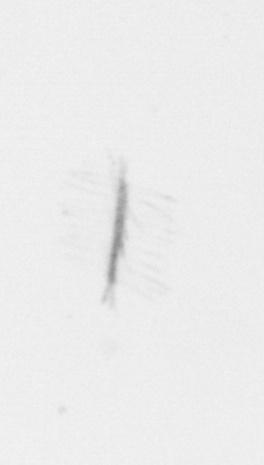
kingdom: Chromista
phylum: Ochrophyta
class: Bacillariophyceae
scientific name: Bacillariophyceae
